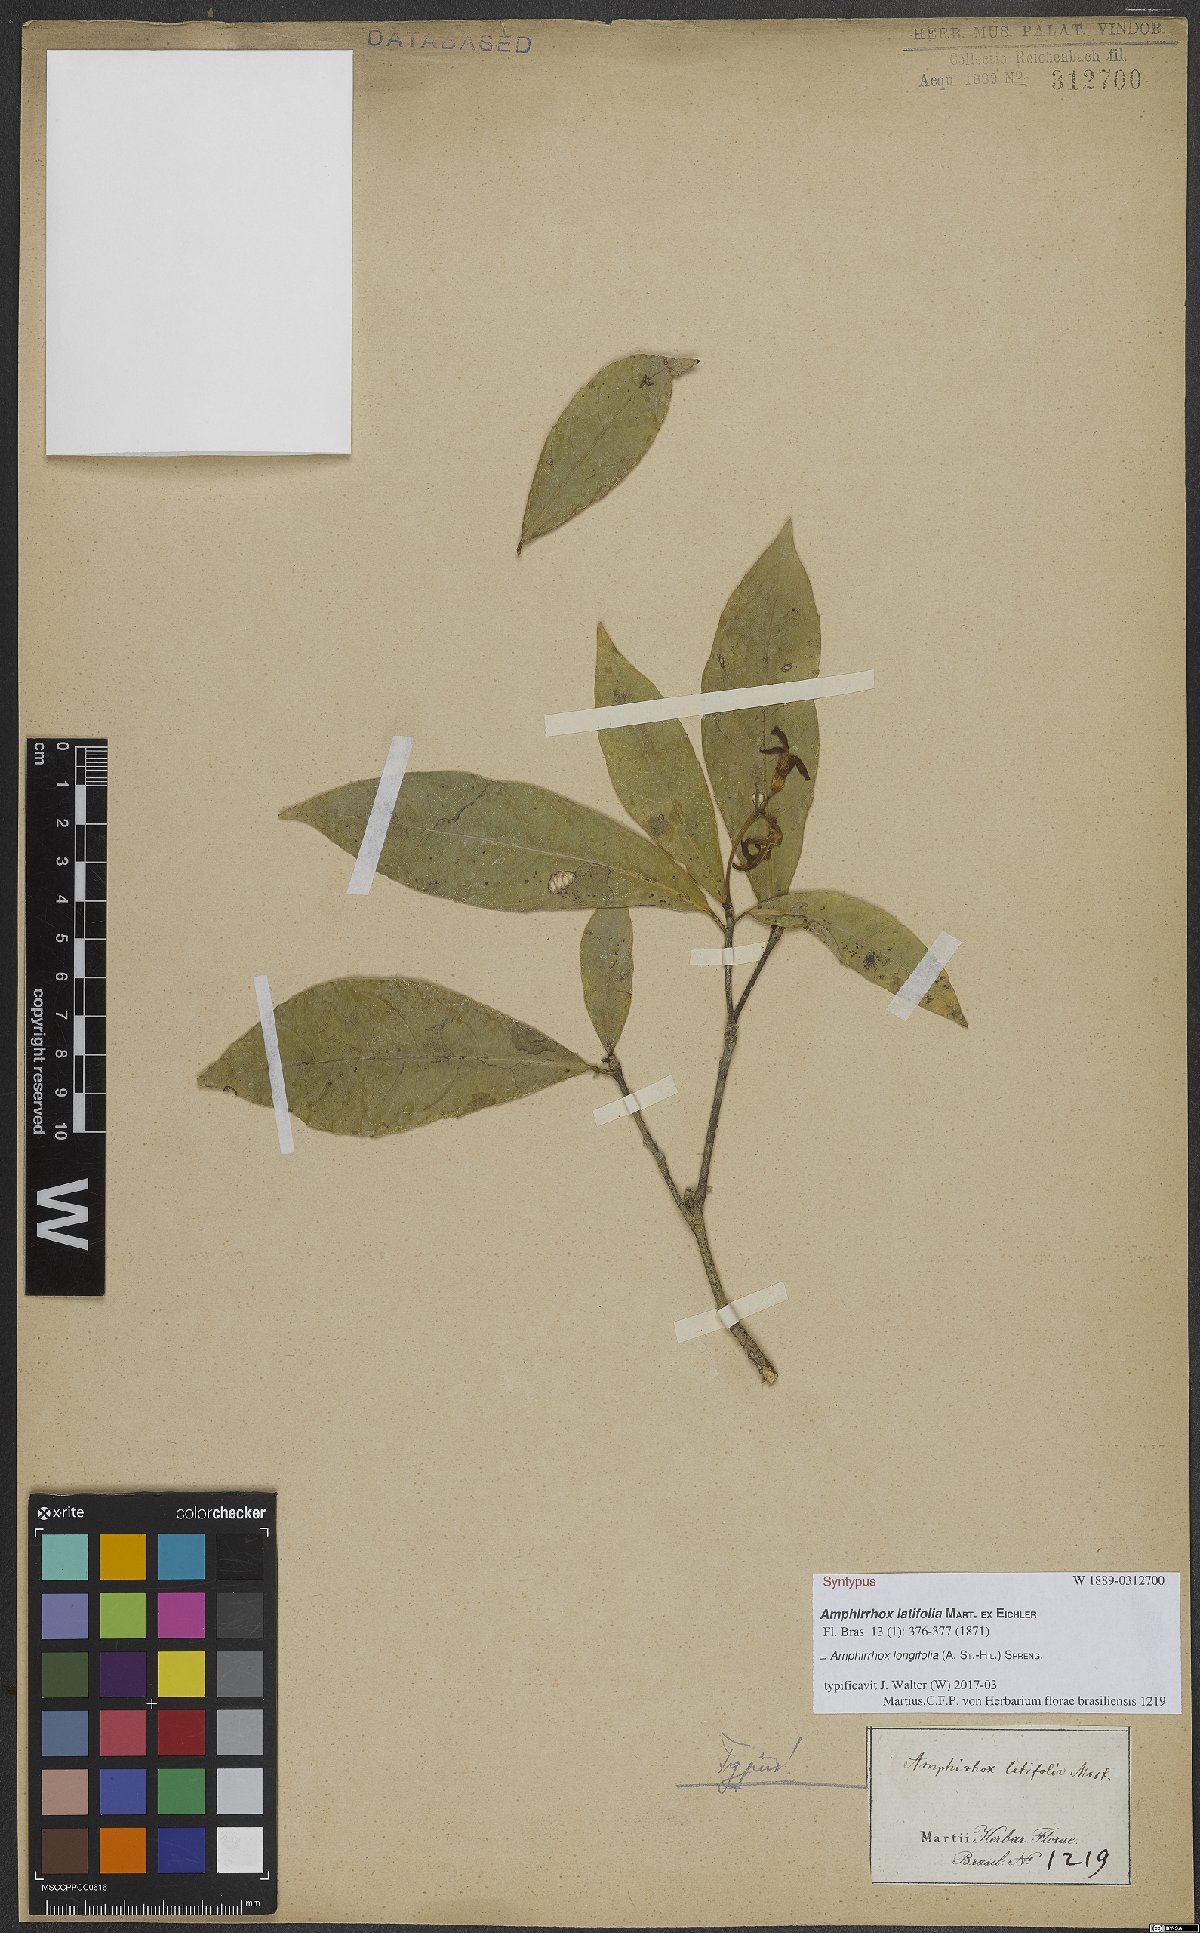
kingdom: Plantae
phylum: Tracheophyta
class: Magnoliopsida
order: Malpighiales
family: Violaceae
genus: Amphirrhox
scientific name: Amphirrhox longifolia
